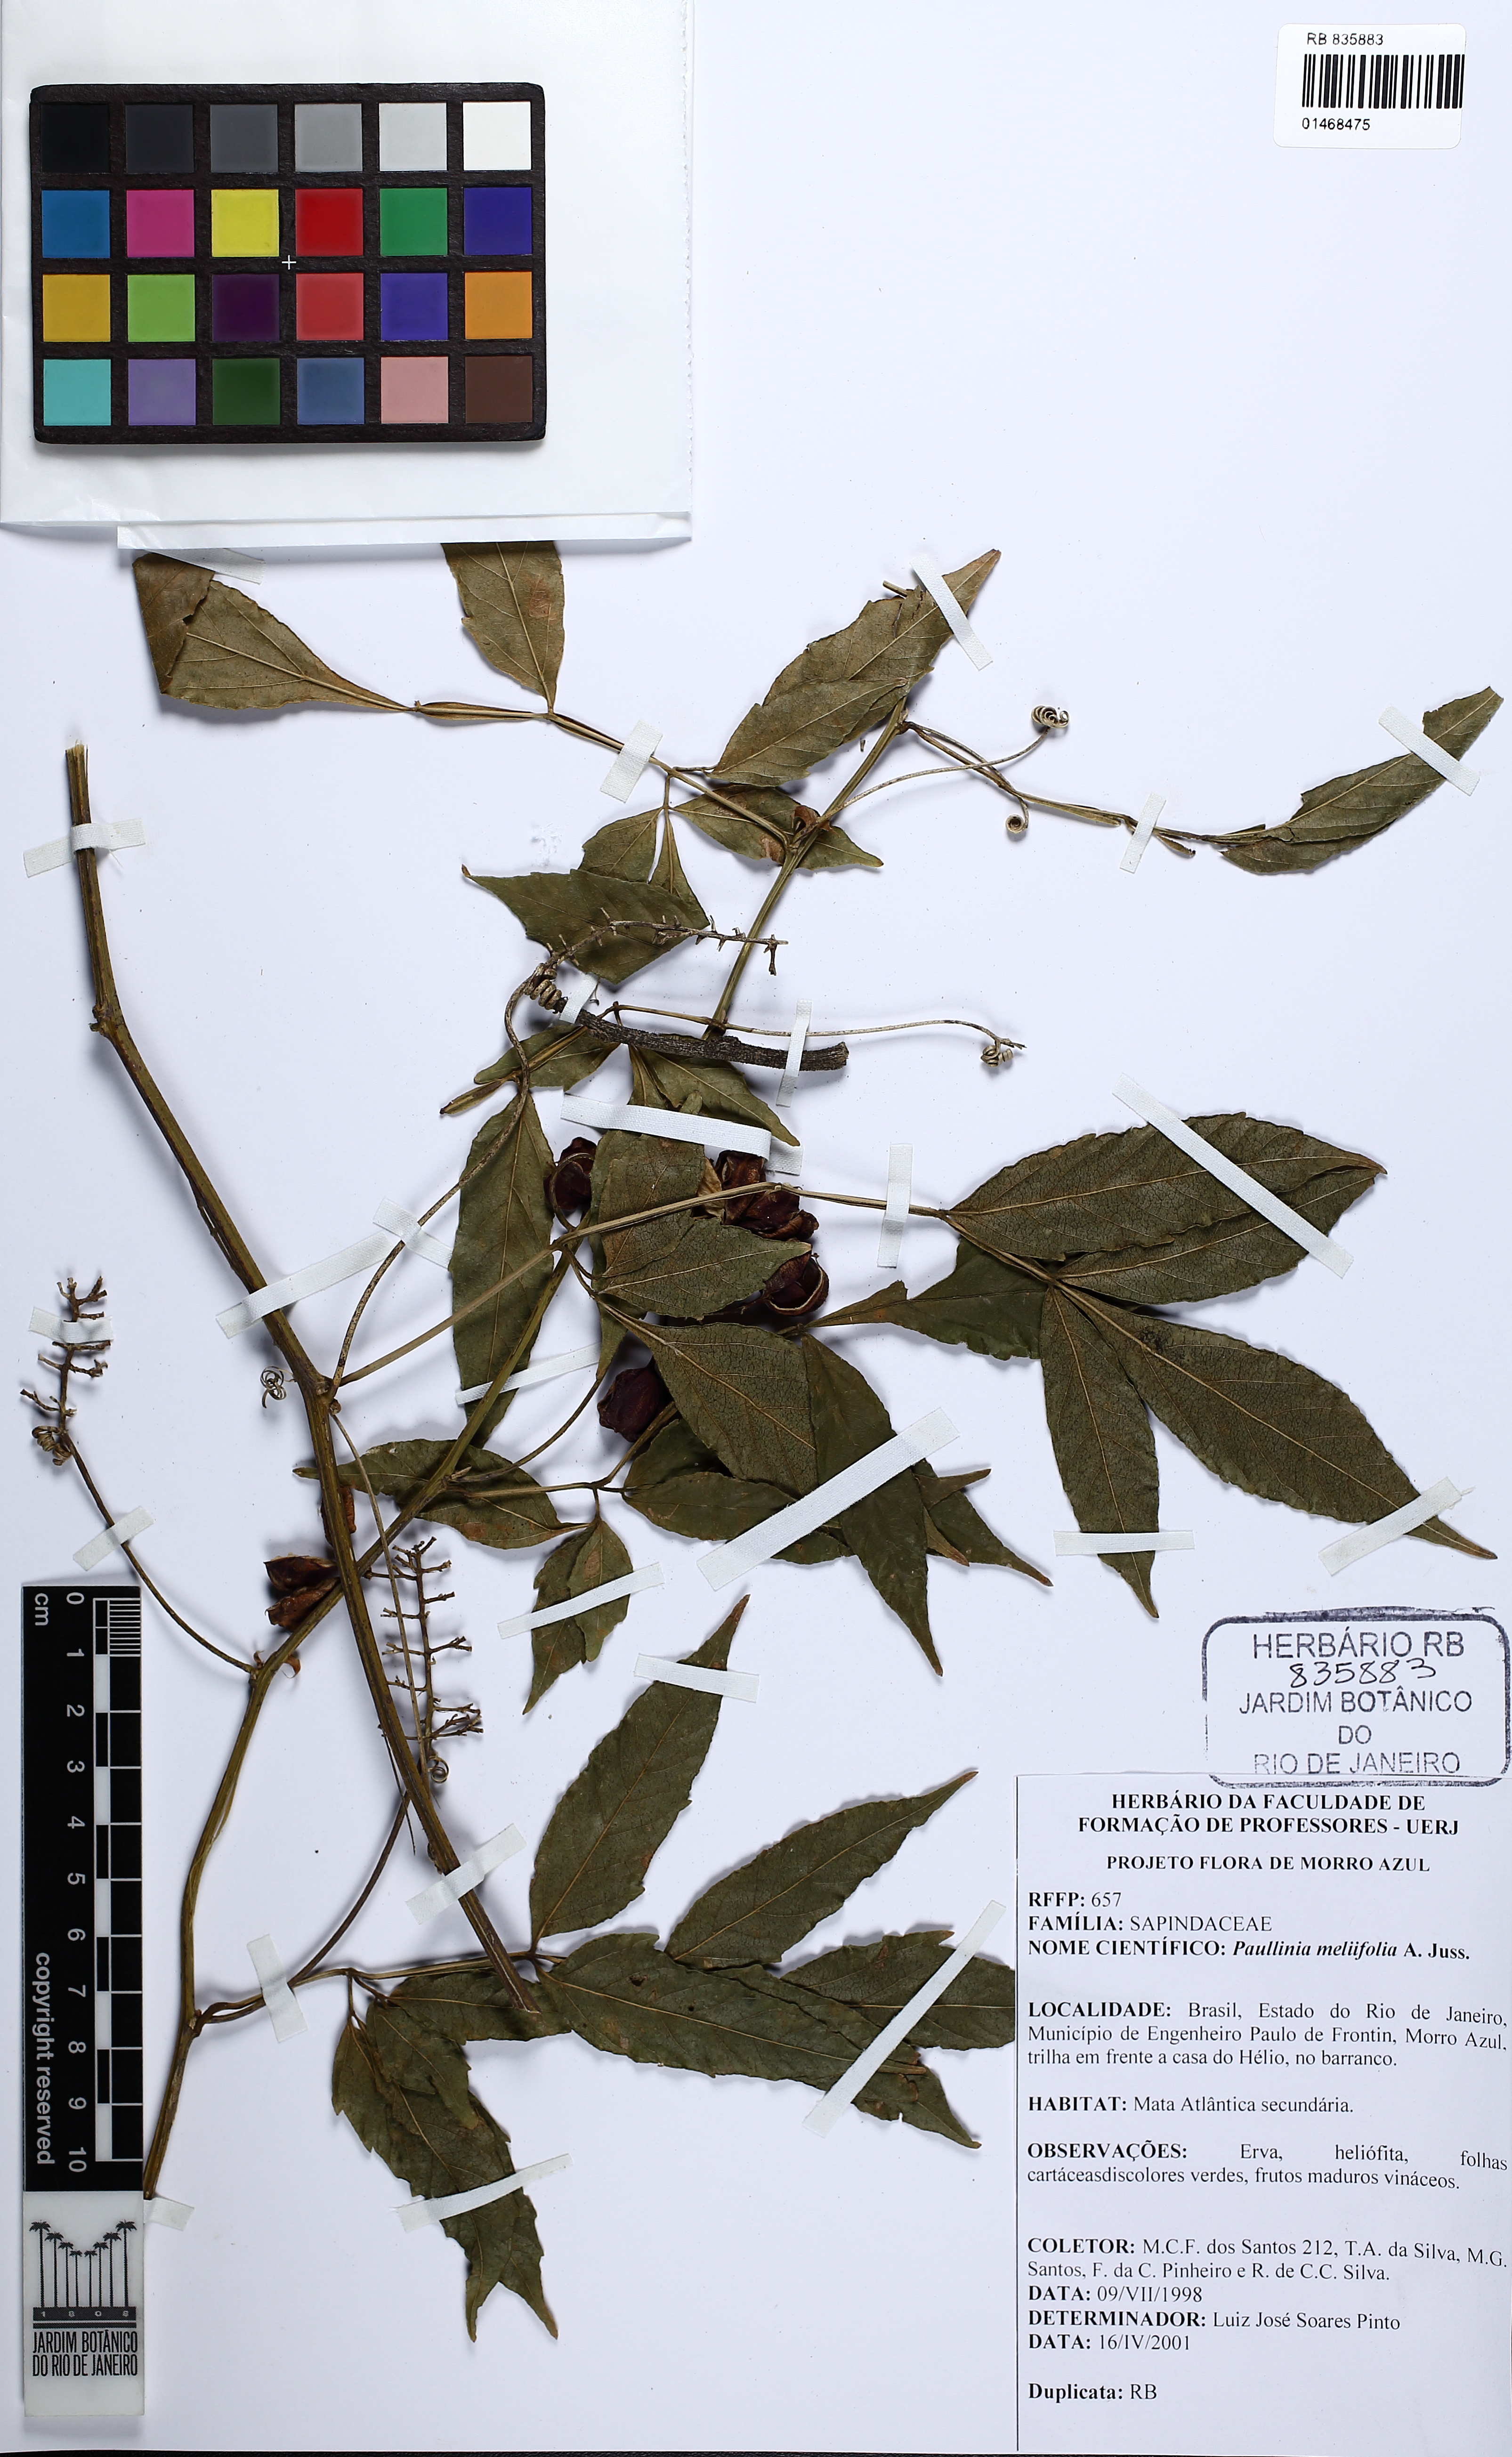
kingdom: Plantae
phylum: Tracheophyta
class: Magnoliopsida
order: Sapindales
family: Sapindaceae
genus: Paullinia
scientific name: Paullinia meliifolia
